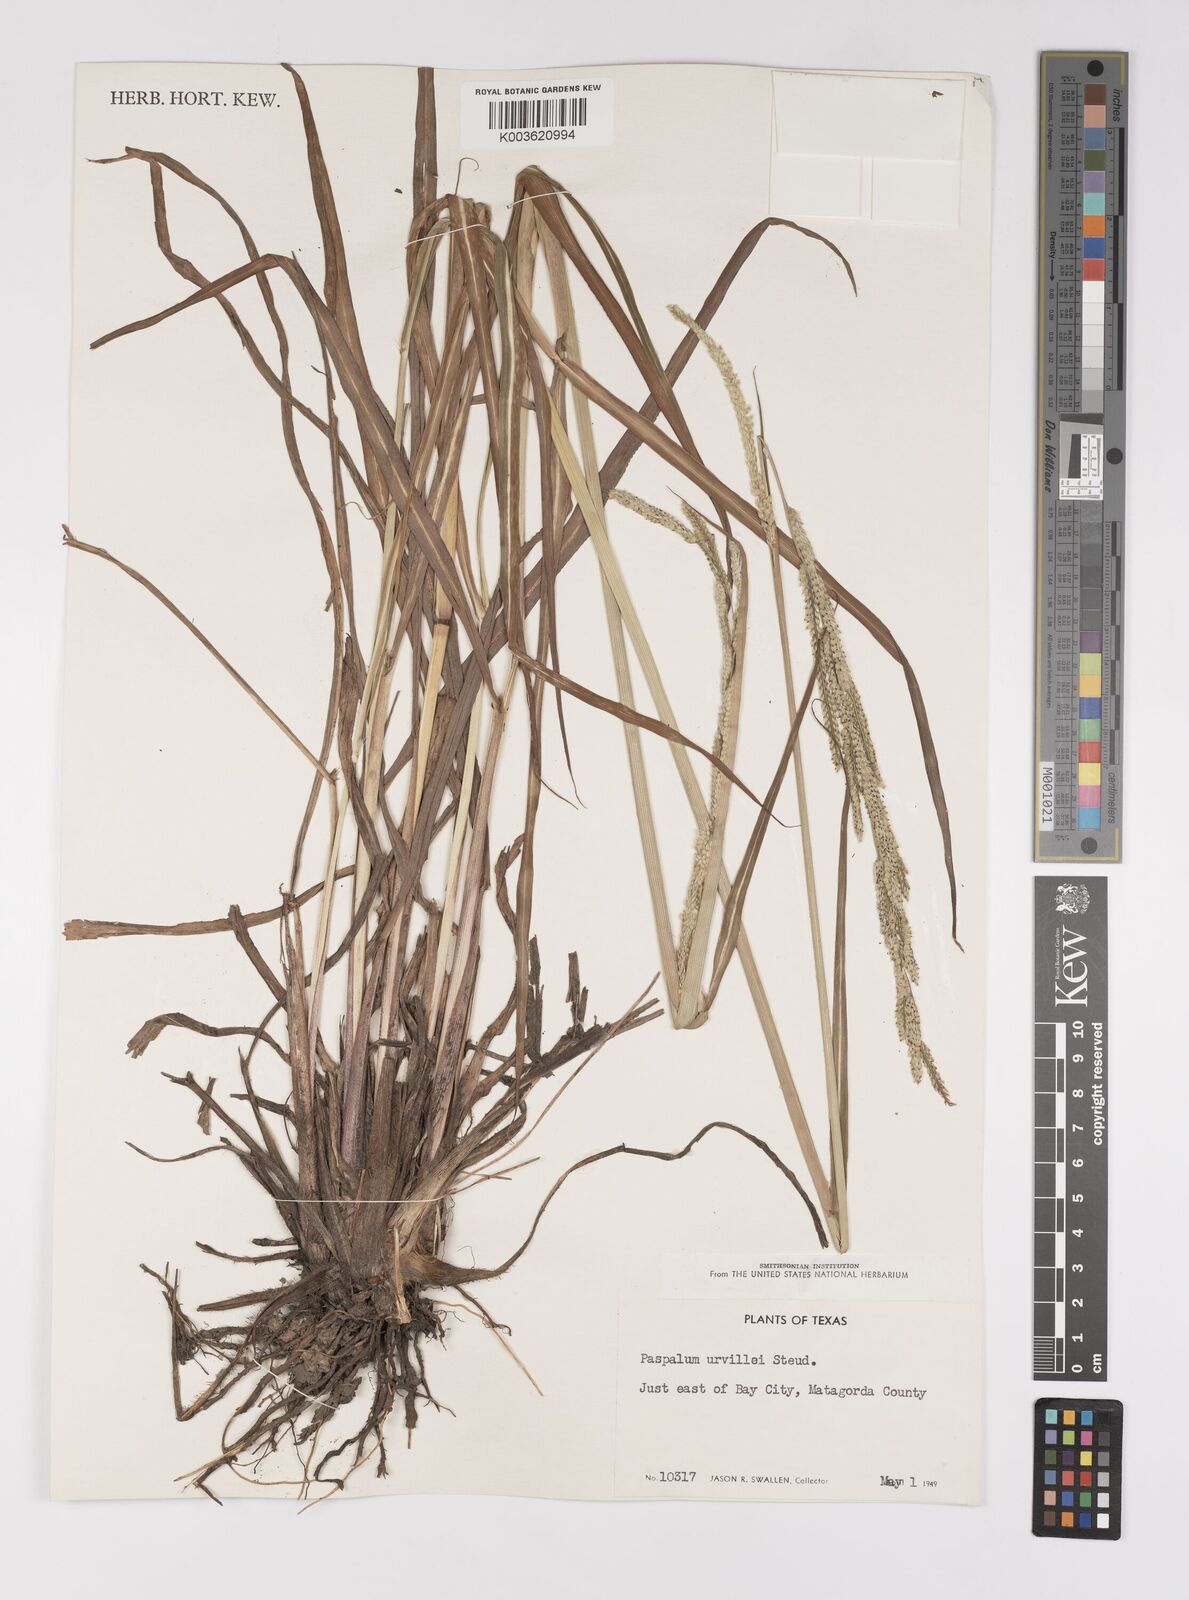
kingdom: Plantae
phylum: Tracheophyta
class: Liliopsida
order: Poales
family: Poaceae
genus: Paspalum
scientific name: Paspalum urvillei
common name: Vasey's grass
